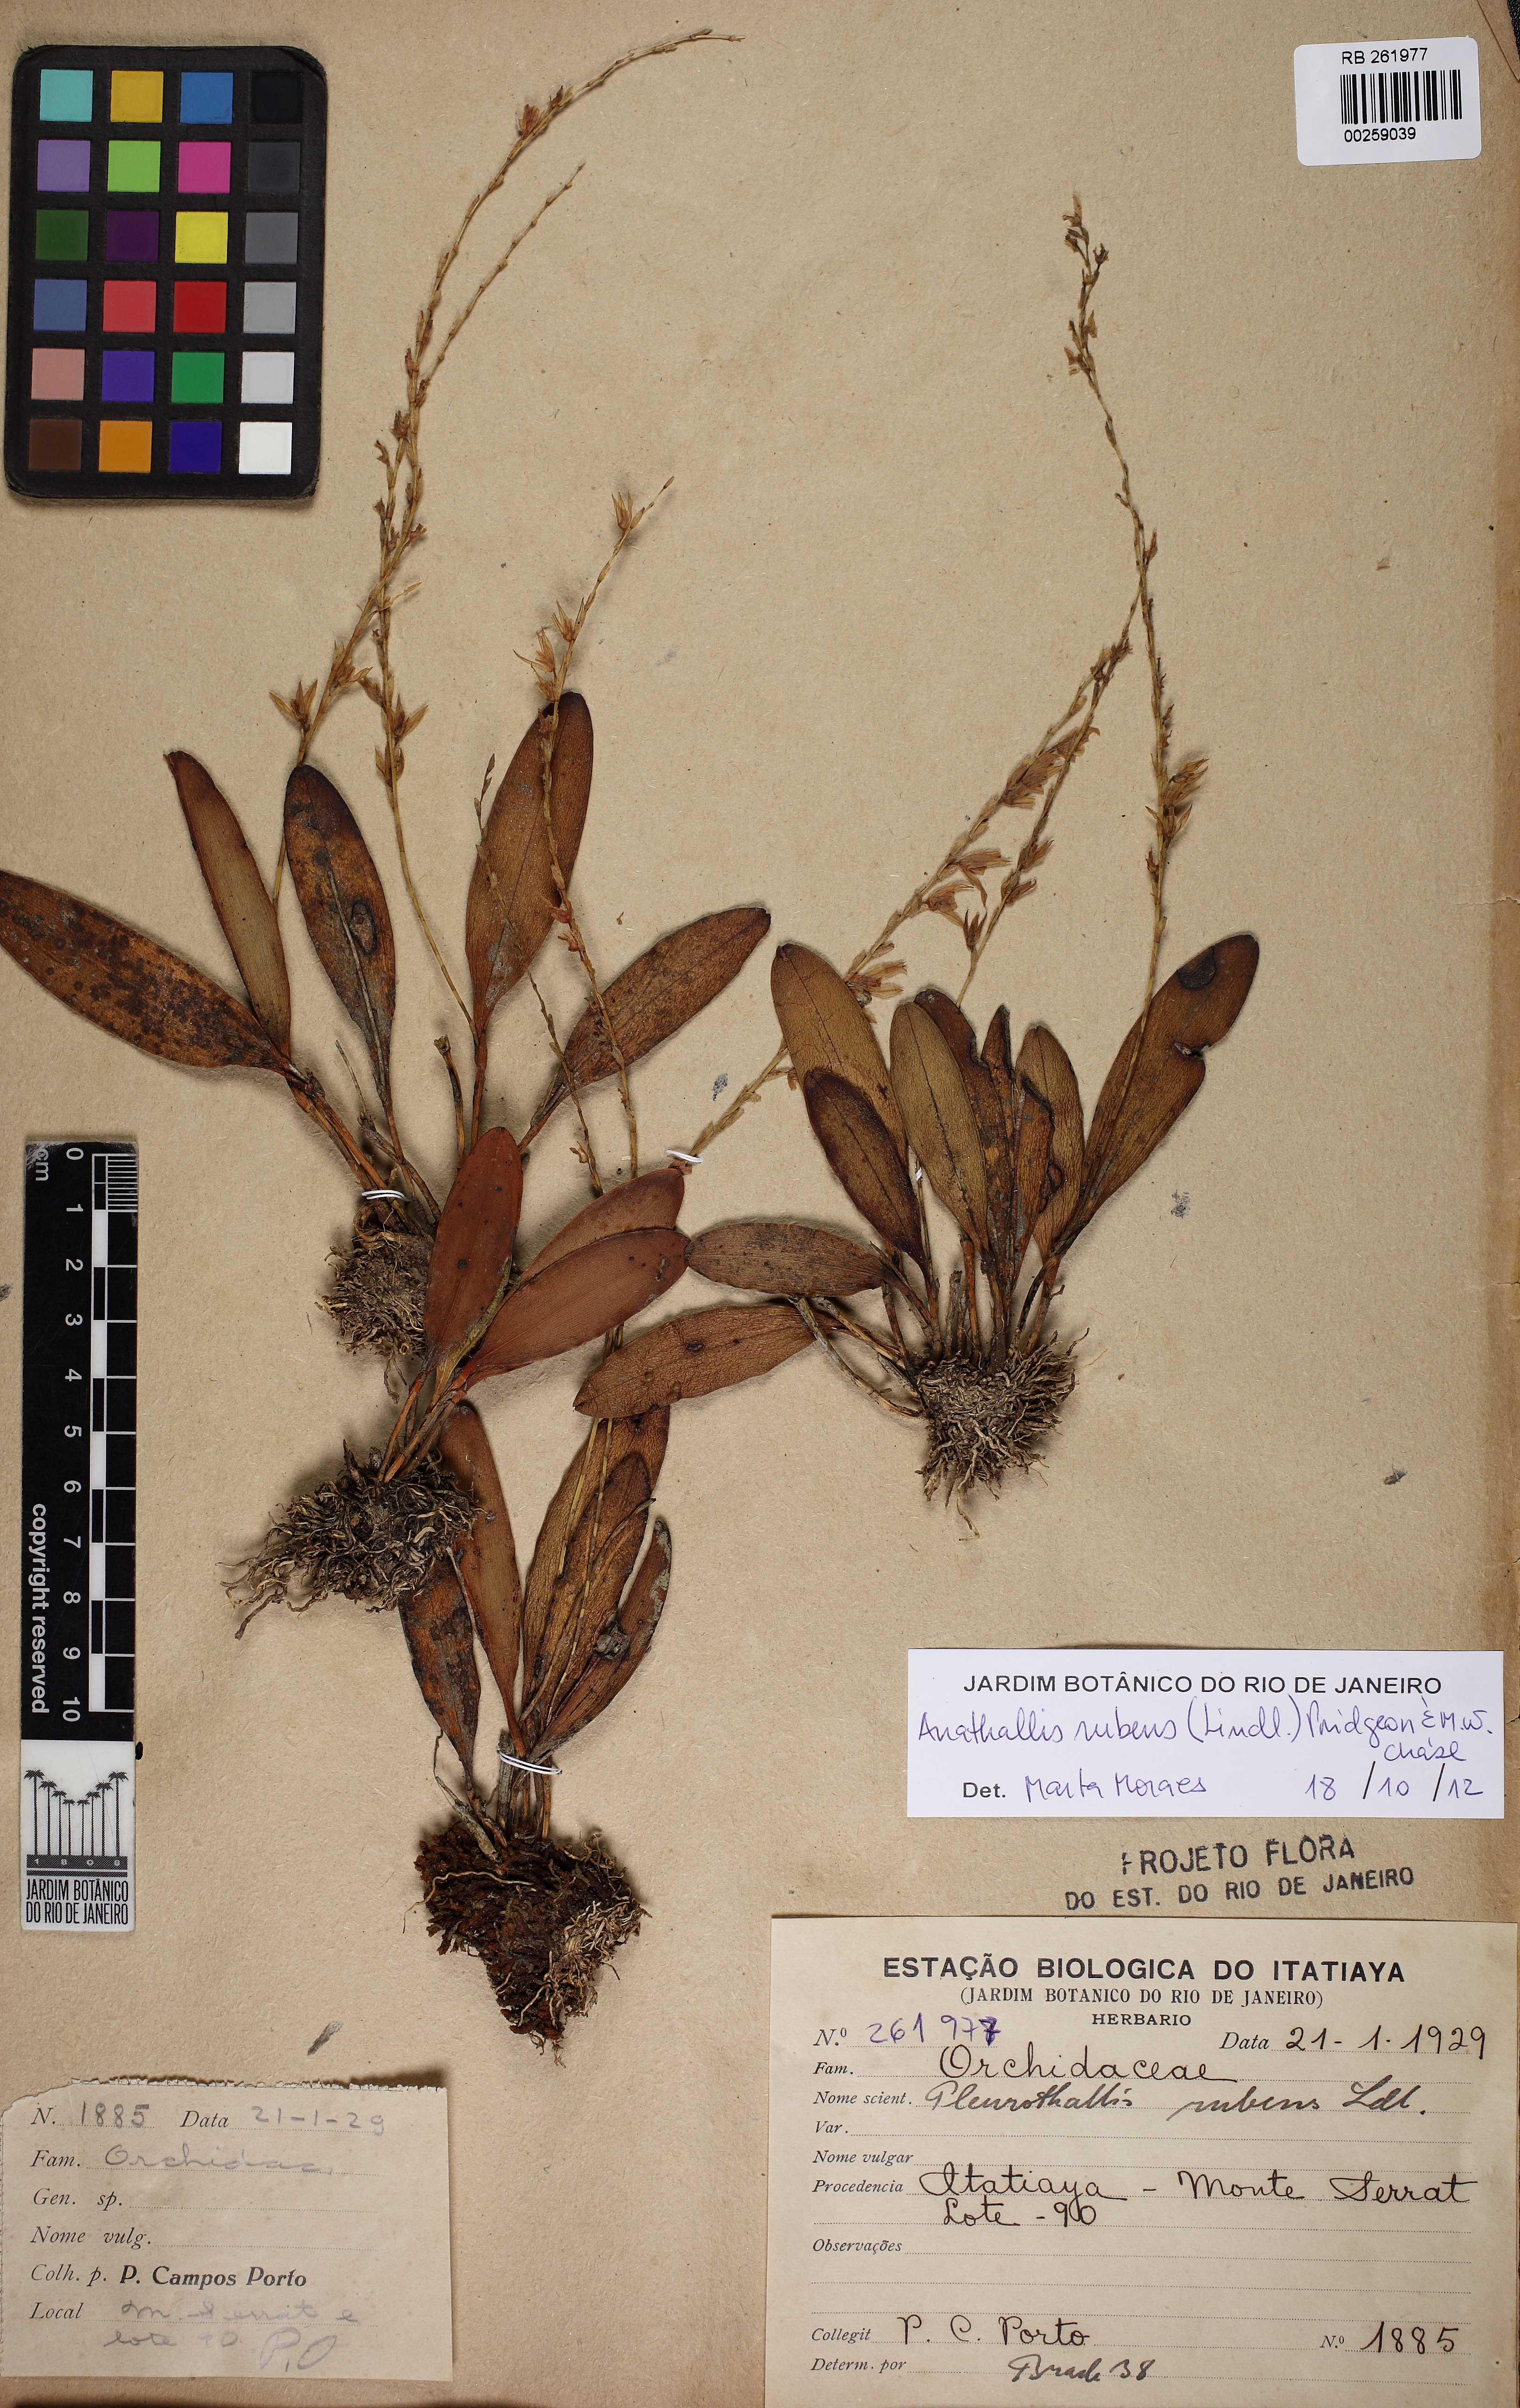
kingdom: Plantae
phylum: Tracheophyta
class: Liliopsida
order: Asparagales
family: Orchidaceae
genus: Stelis
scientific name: Stelis montserratii
